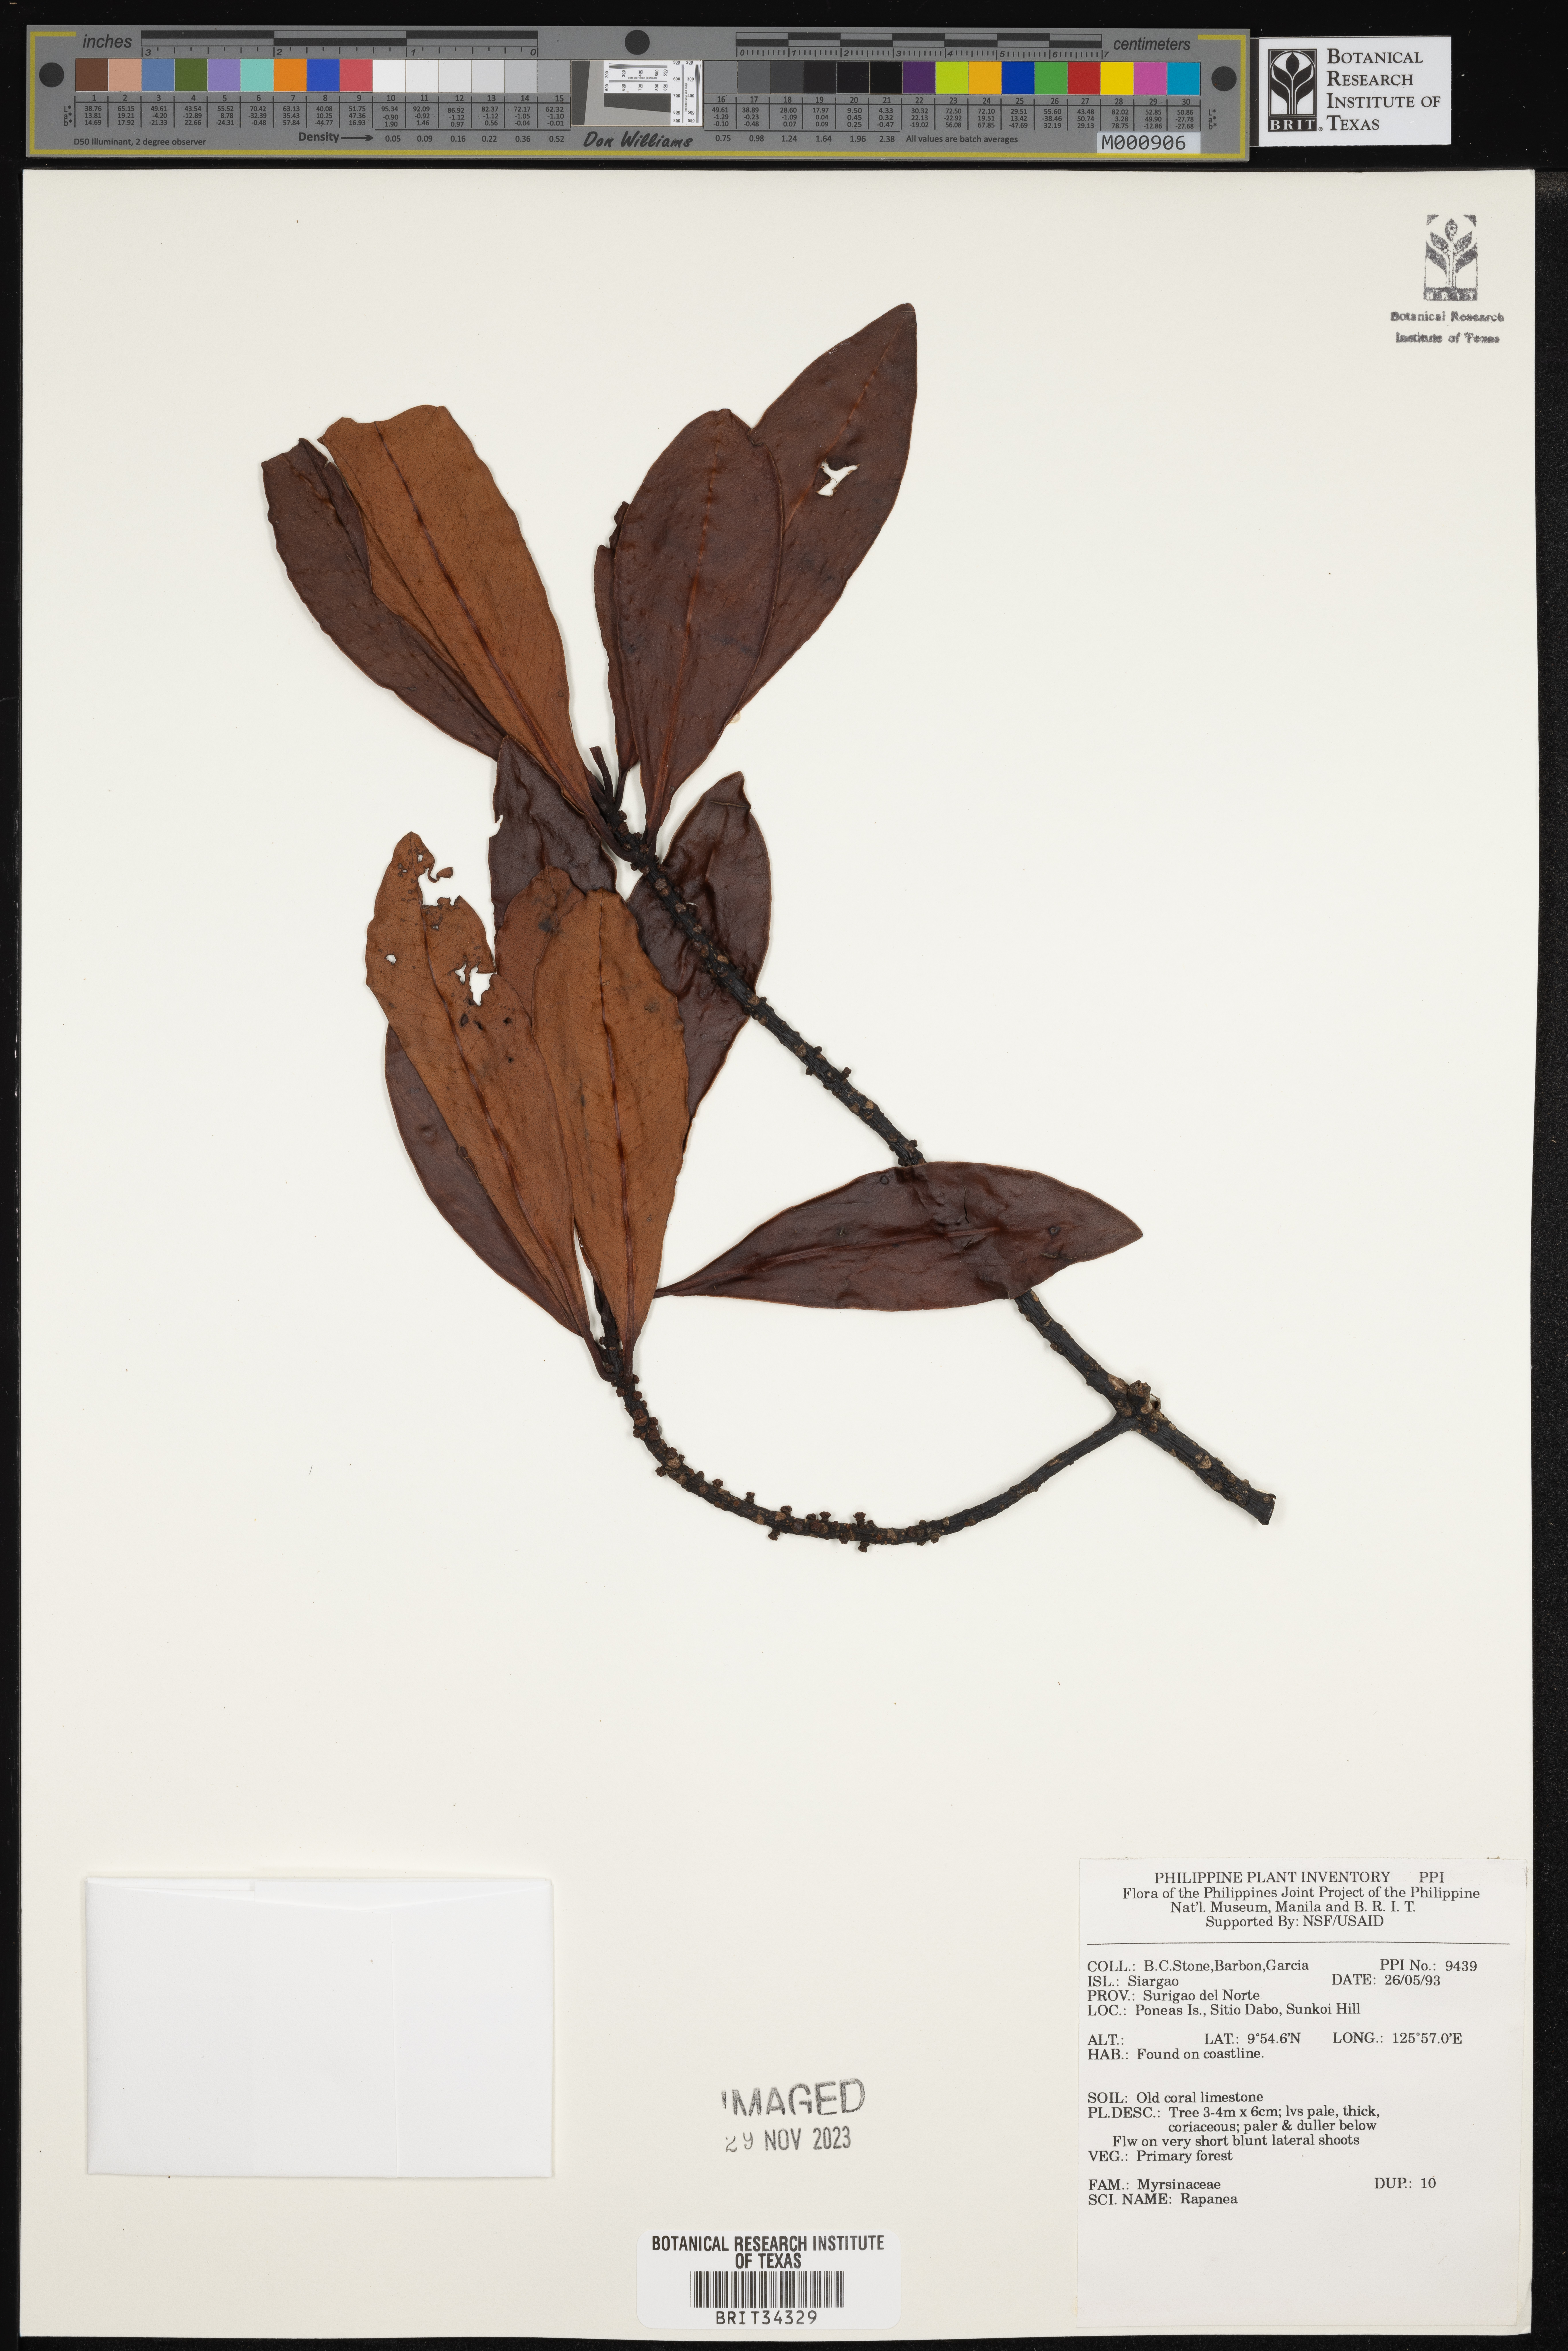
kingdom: Plantae
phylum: Tracheophyta
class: Magnoliopsida
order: Ericales
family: Primulaceae
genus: Myrsine
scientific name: Myrsine
